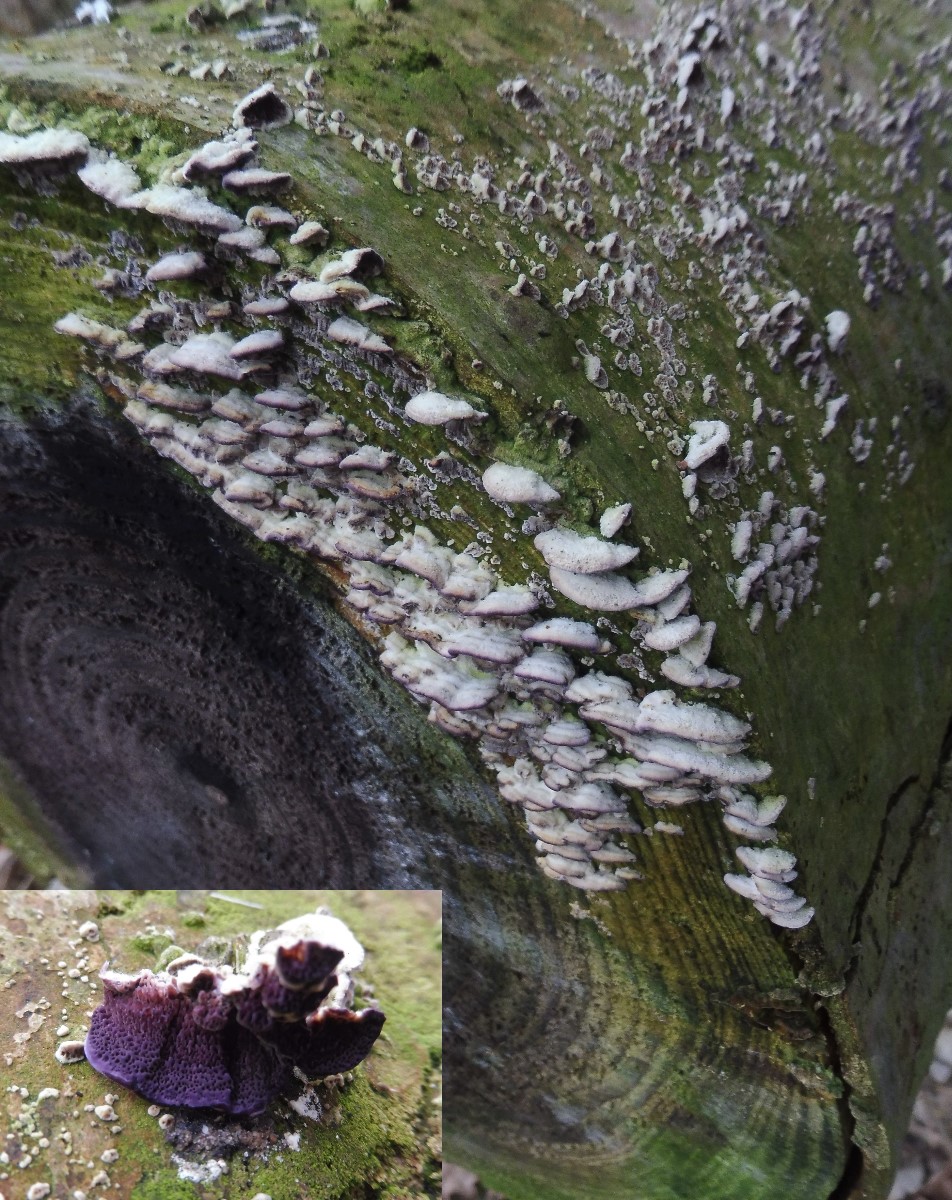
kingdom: Fungi
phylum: Basidiomycota
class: Agaricomycetes
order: Hymenochaetales
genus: Trichaptum
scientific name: Trichaptum abietinum
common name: almindelig violporesvamp
